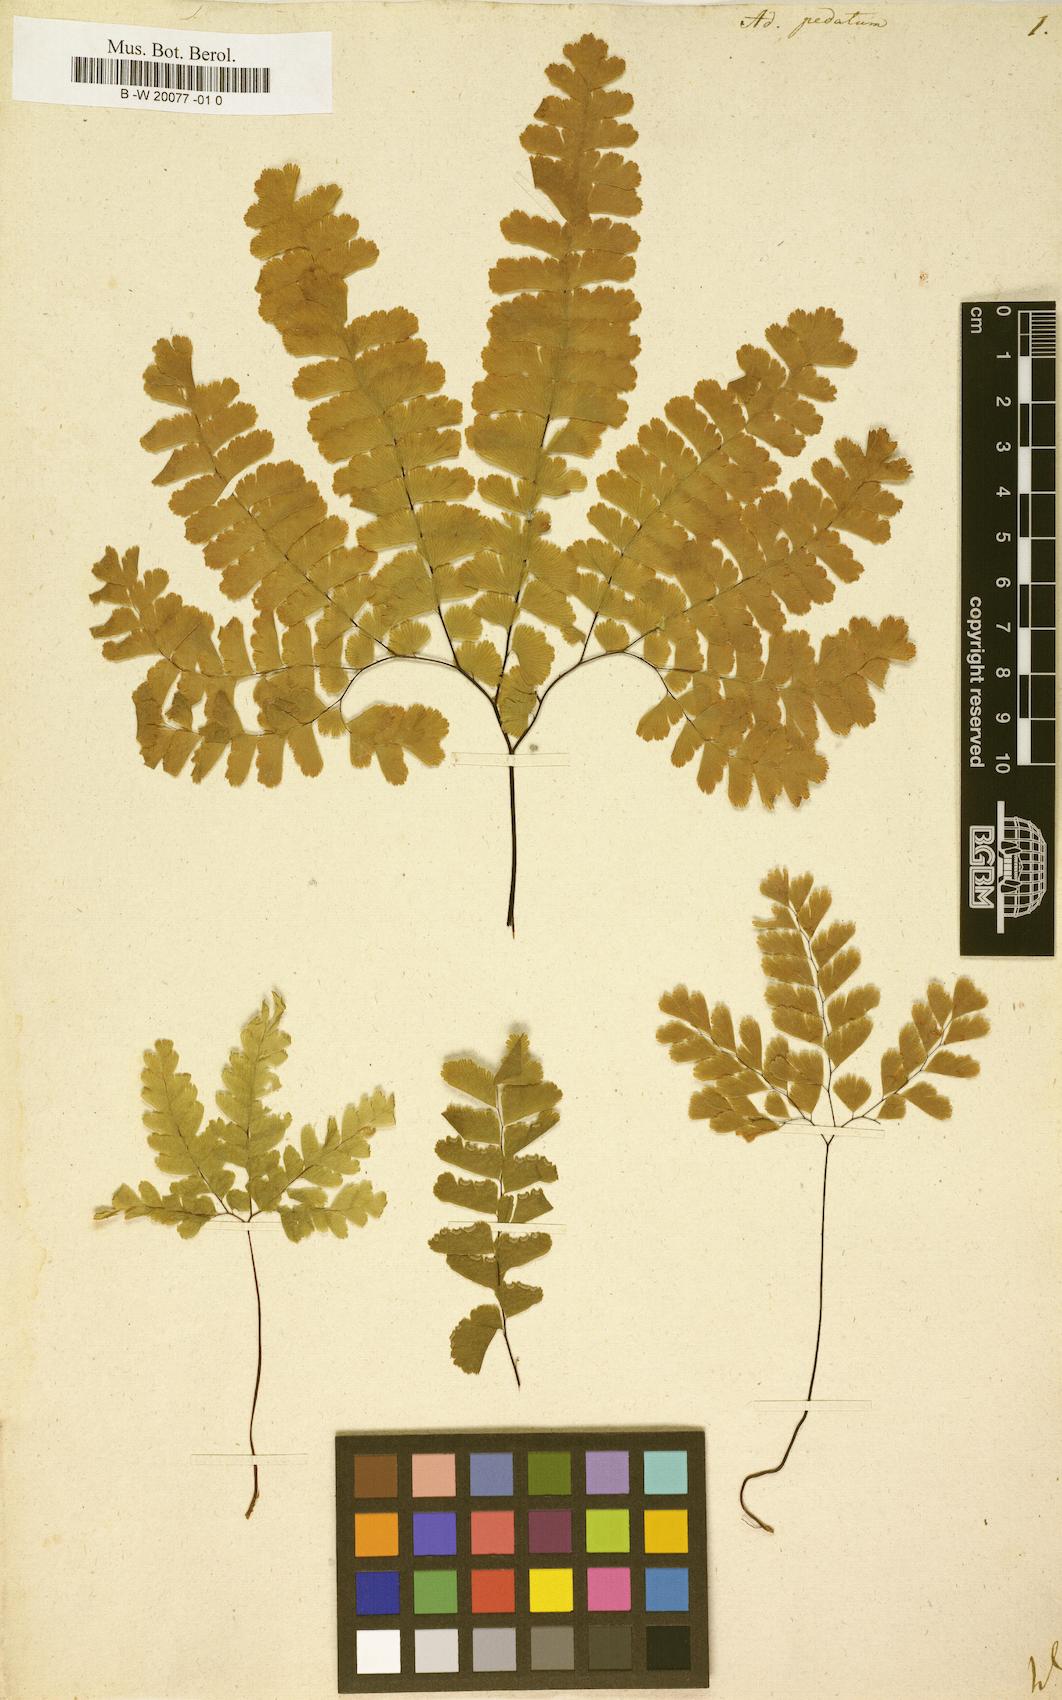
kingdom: Plantae
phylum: Tracheophyta
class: Polypodiopsida
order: Polypodiales
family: Pteridaceae
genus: Adiantum
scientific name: Adiantum pedatum
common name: Five-finger fern
